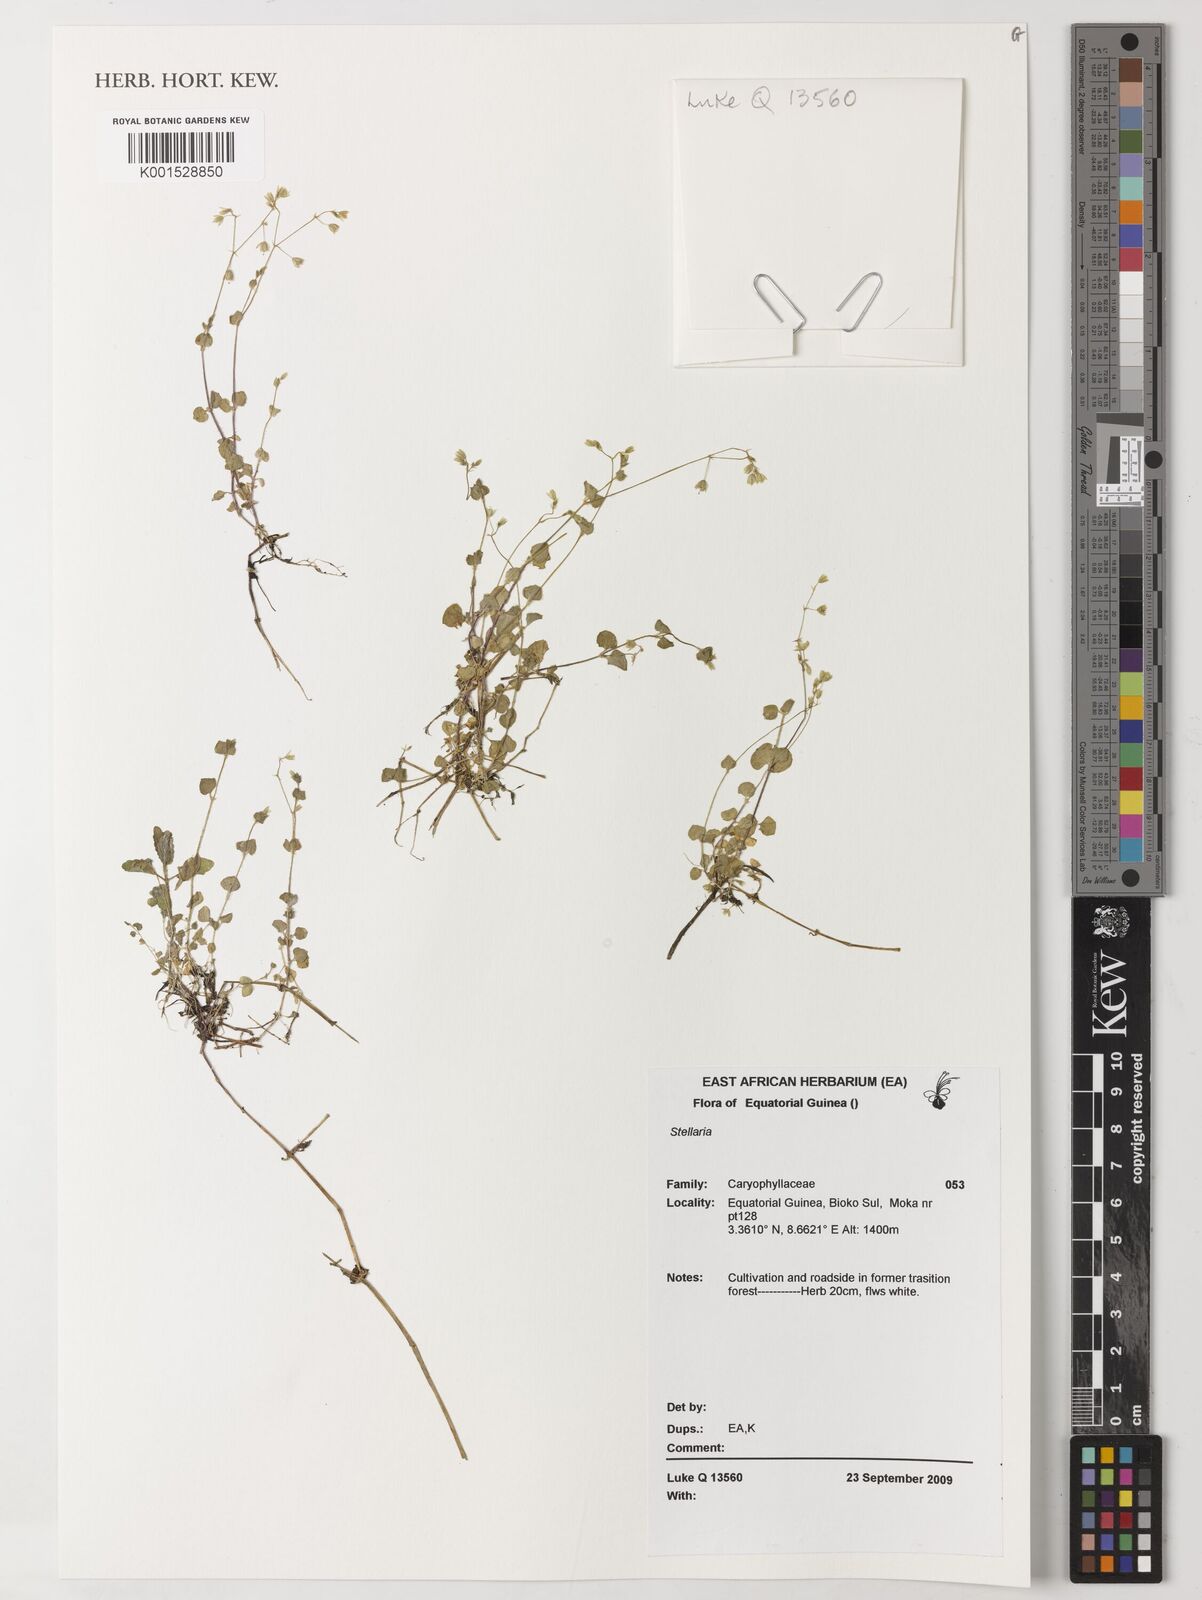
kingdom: Plantae
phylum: Tracheophyta
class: Magnoliopsida
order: Caryophyllales
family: Caryophyllaceae
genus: Stellaria
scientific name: Stellaria
